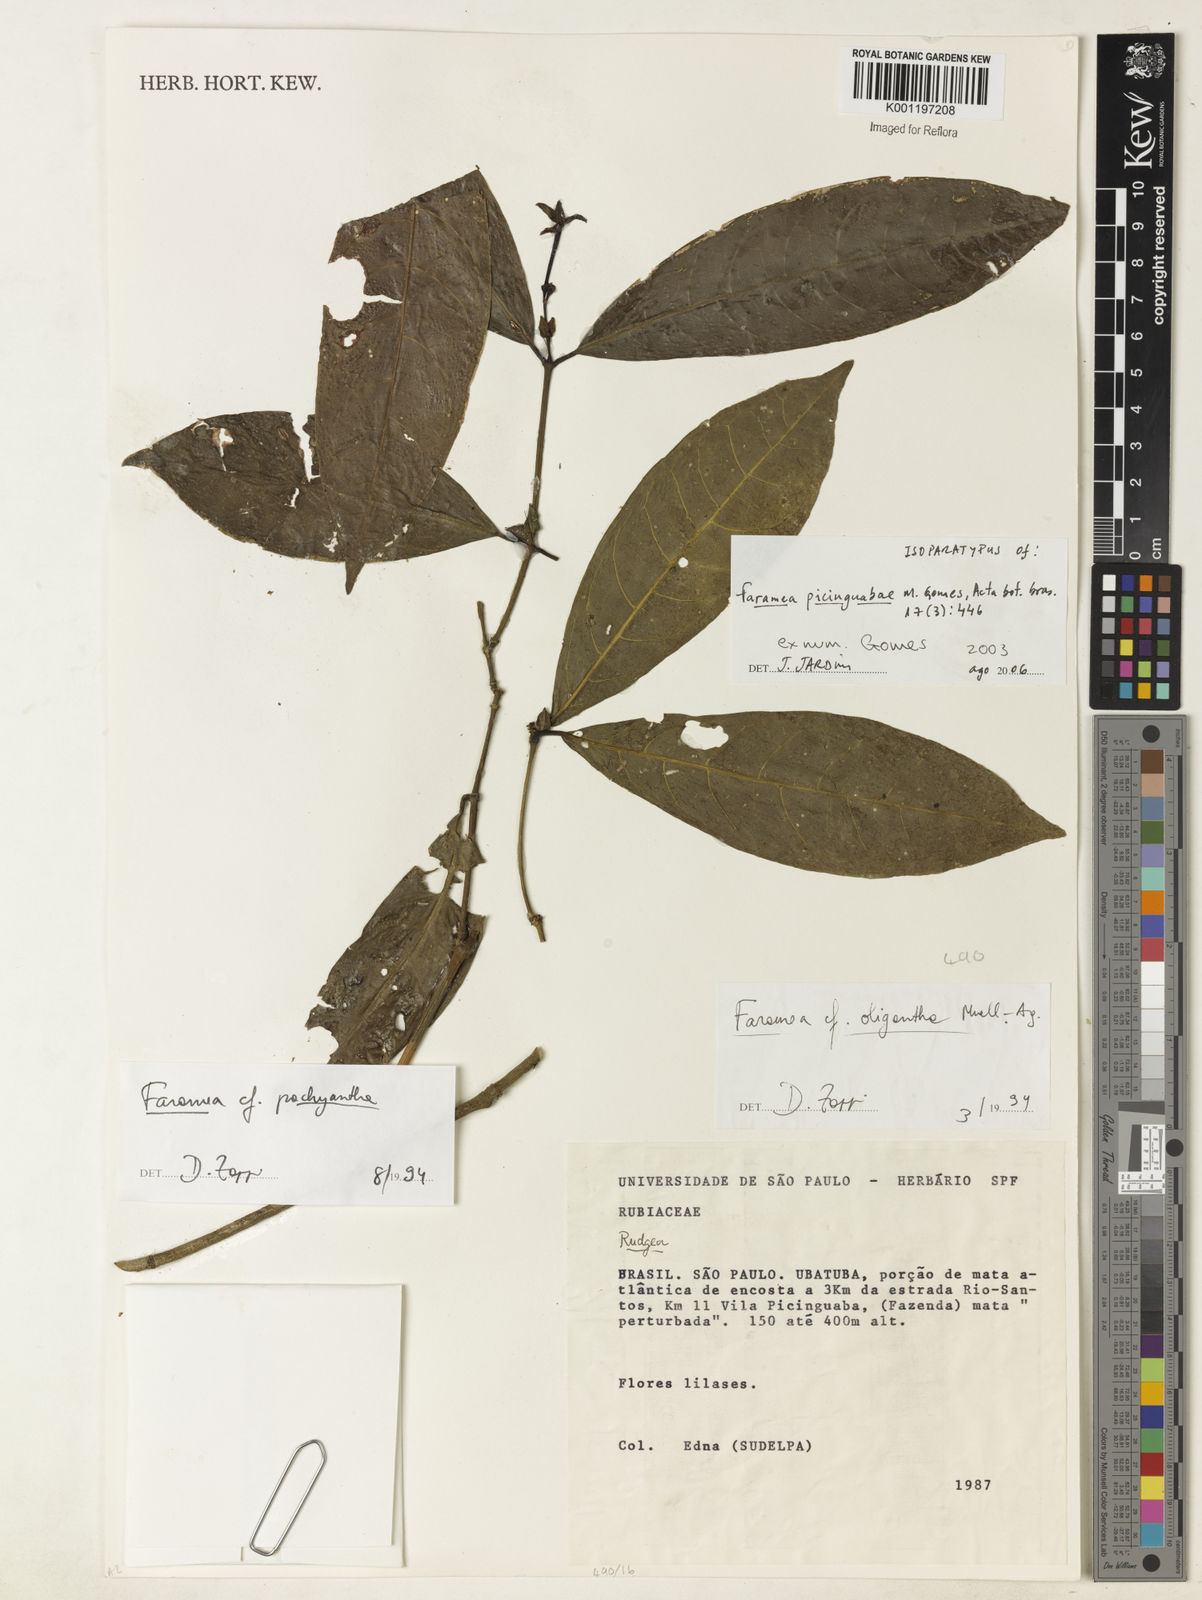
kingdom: Plantae
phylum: Tracheophyta
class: Magnoliopsida
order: Gentianales
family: Rubiaceae
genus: Faramea
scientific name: Faramea picinguabae
